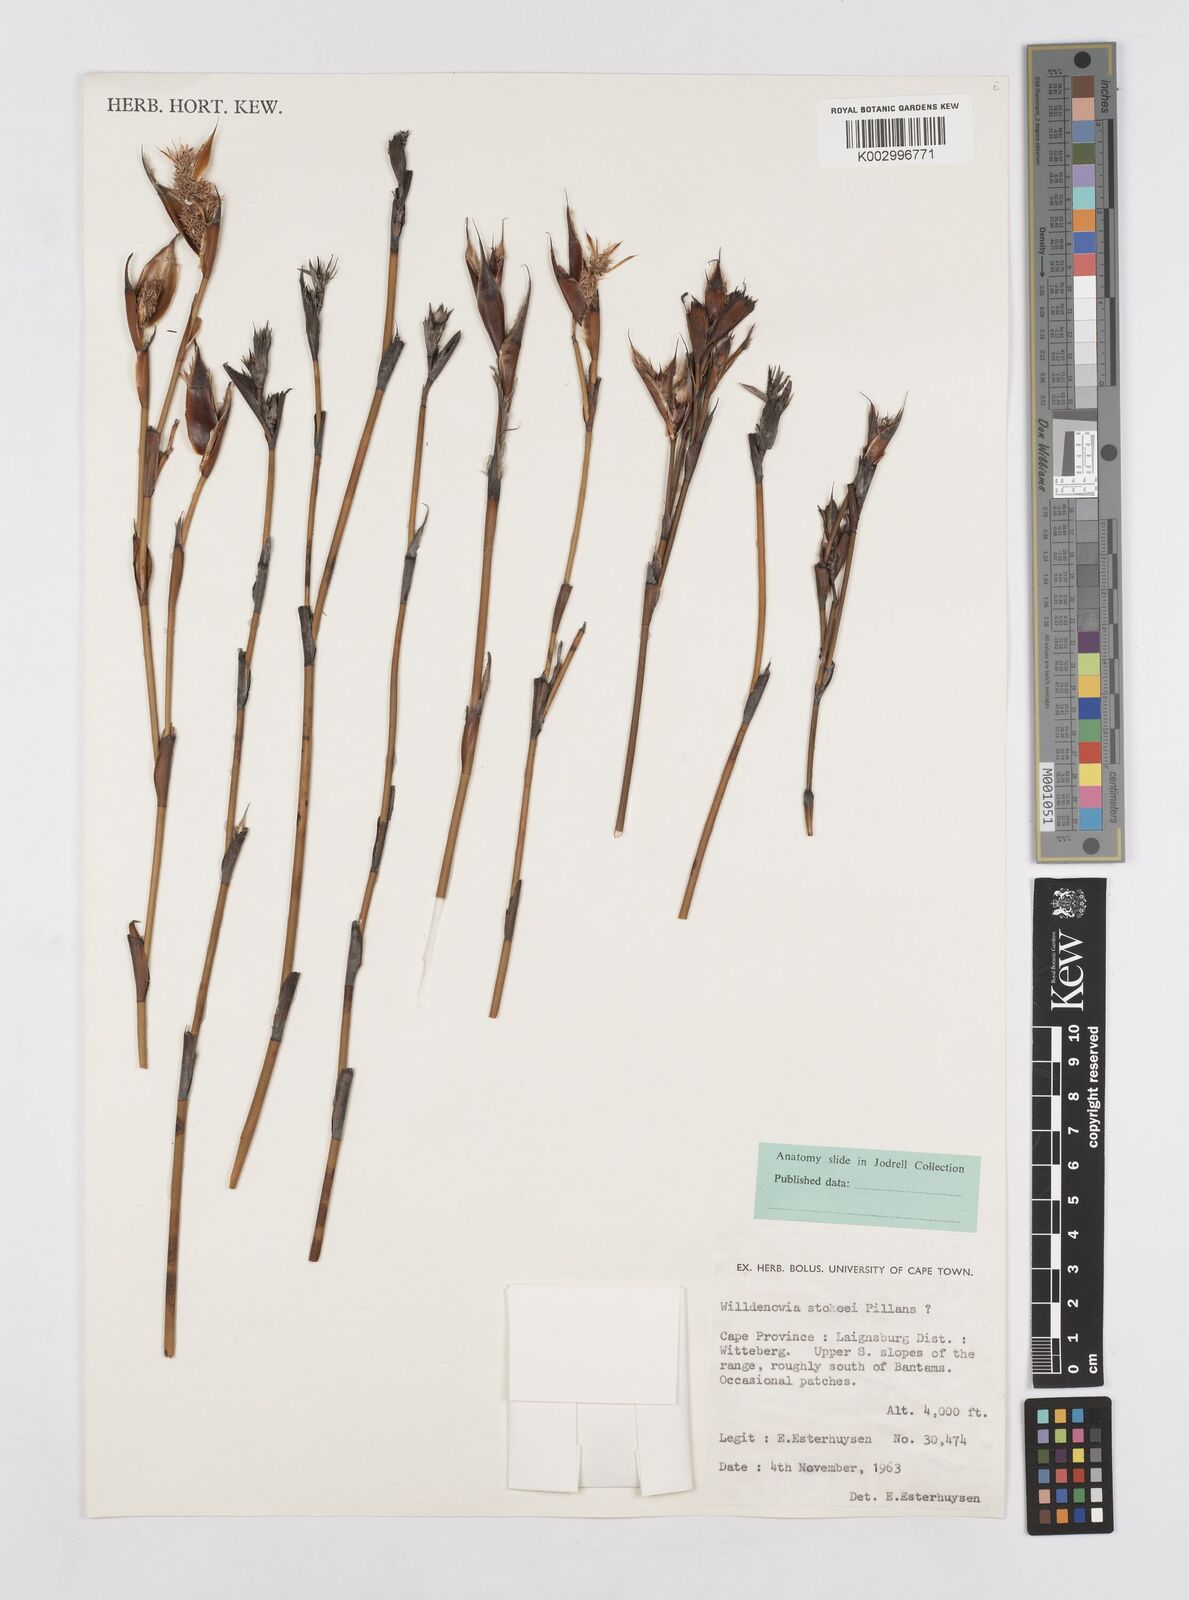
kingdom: Plantae
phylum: Tracheophyta
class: Liliopsida
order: Poales
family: Restionaceae
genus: Willdenowia
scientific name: Willdenowia stokoei
